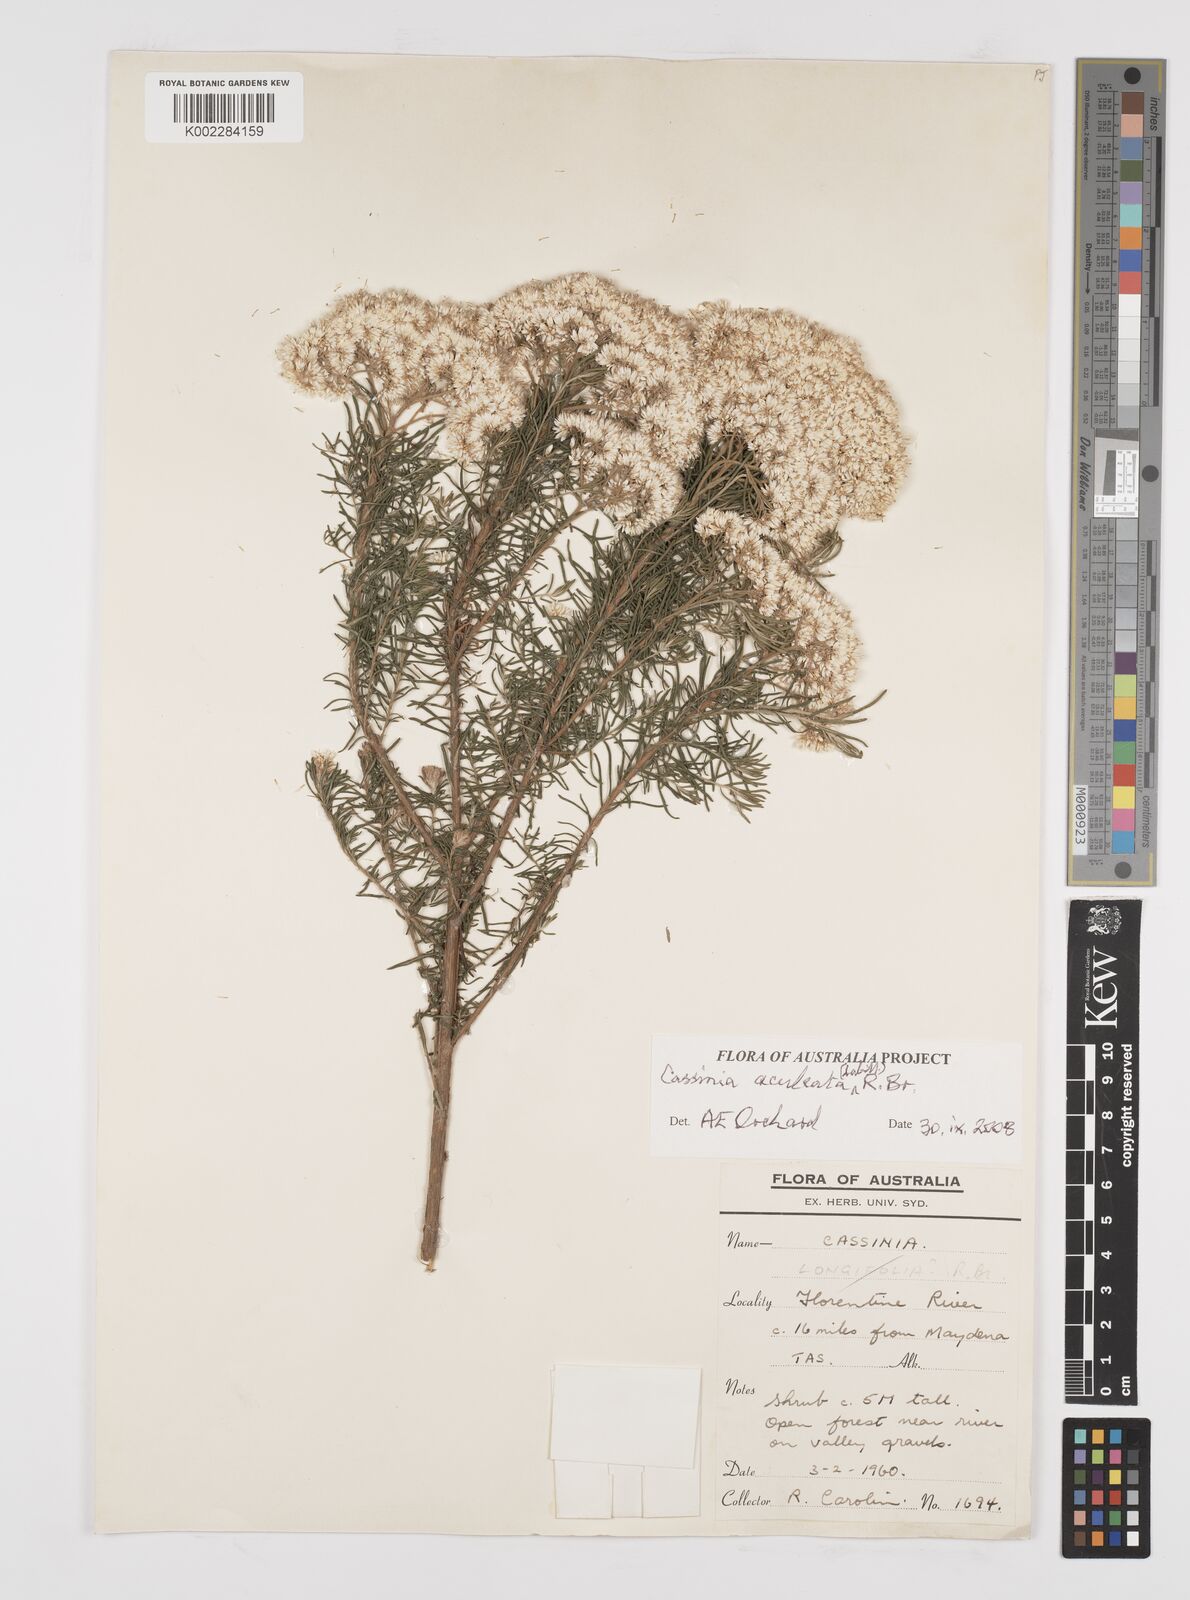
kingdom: Plantae
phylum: Tracheophyta
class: Magnoliopsida
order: Asterales
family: Asteraceae
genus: Cassinia
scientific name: Cassinia aculeata
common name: Australian tauhinu
